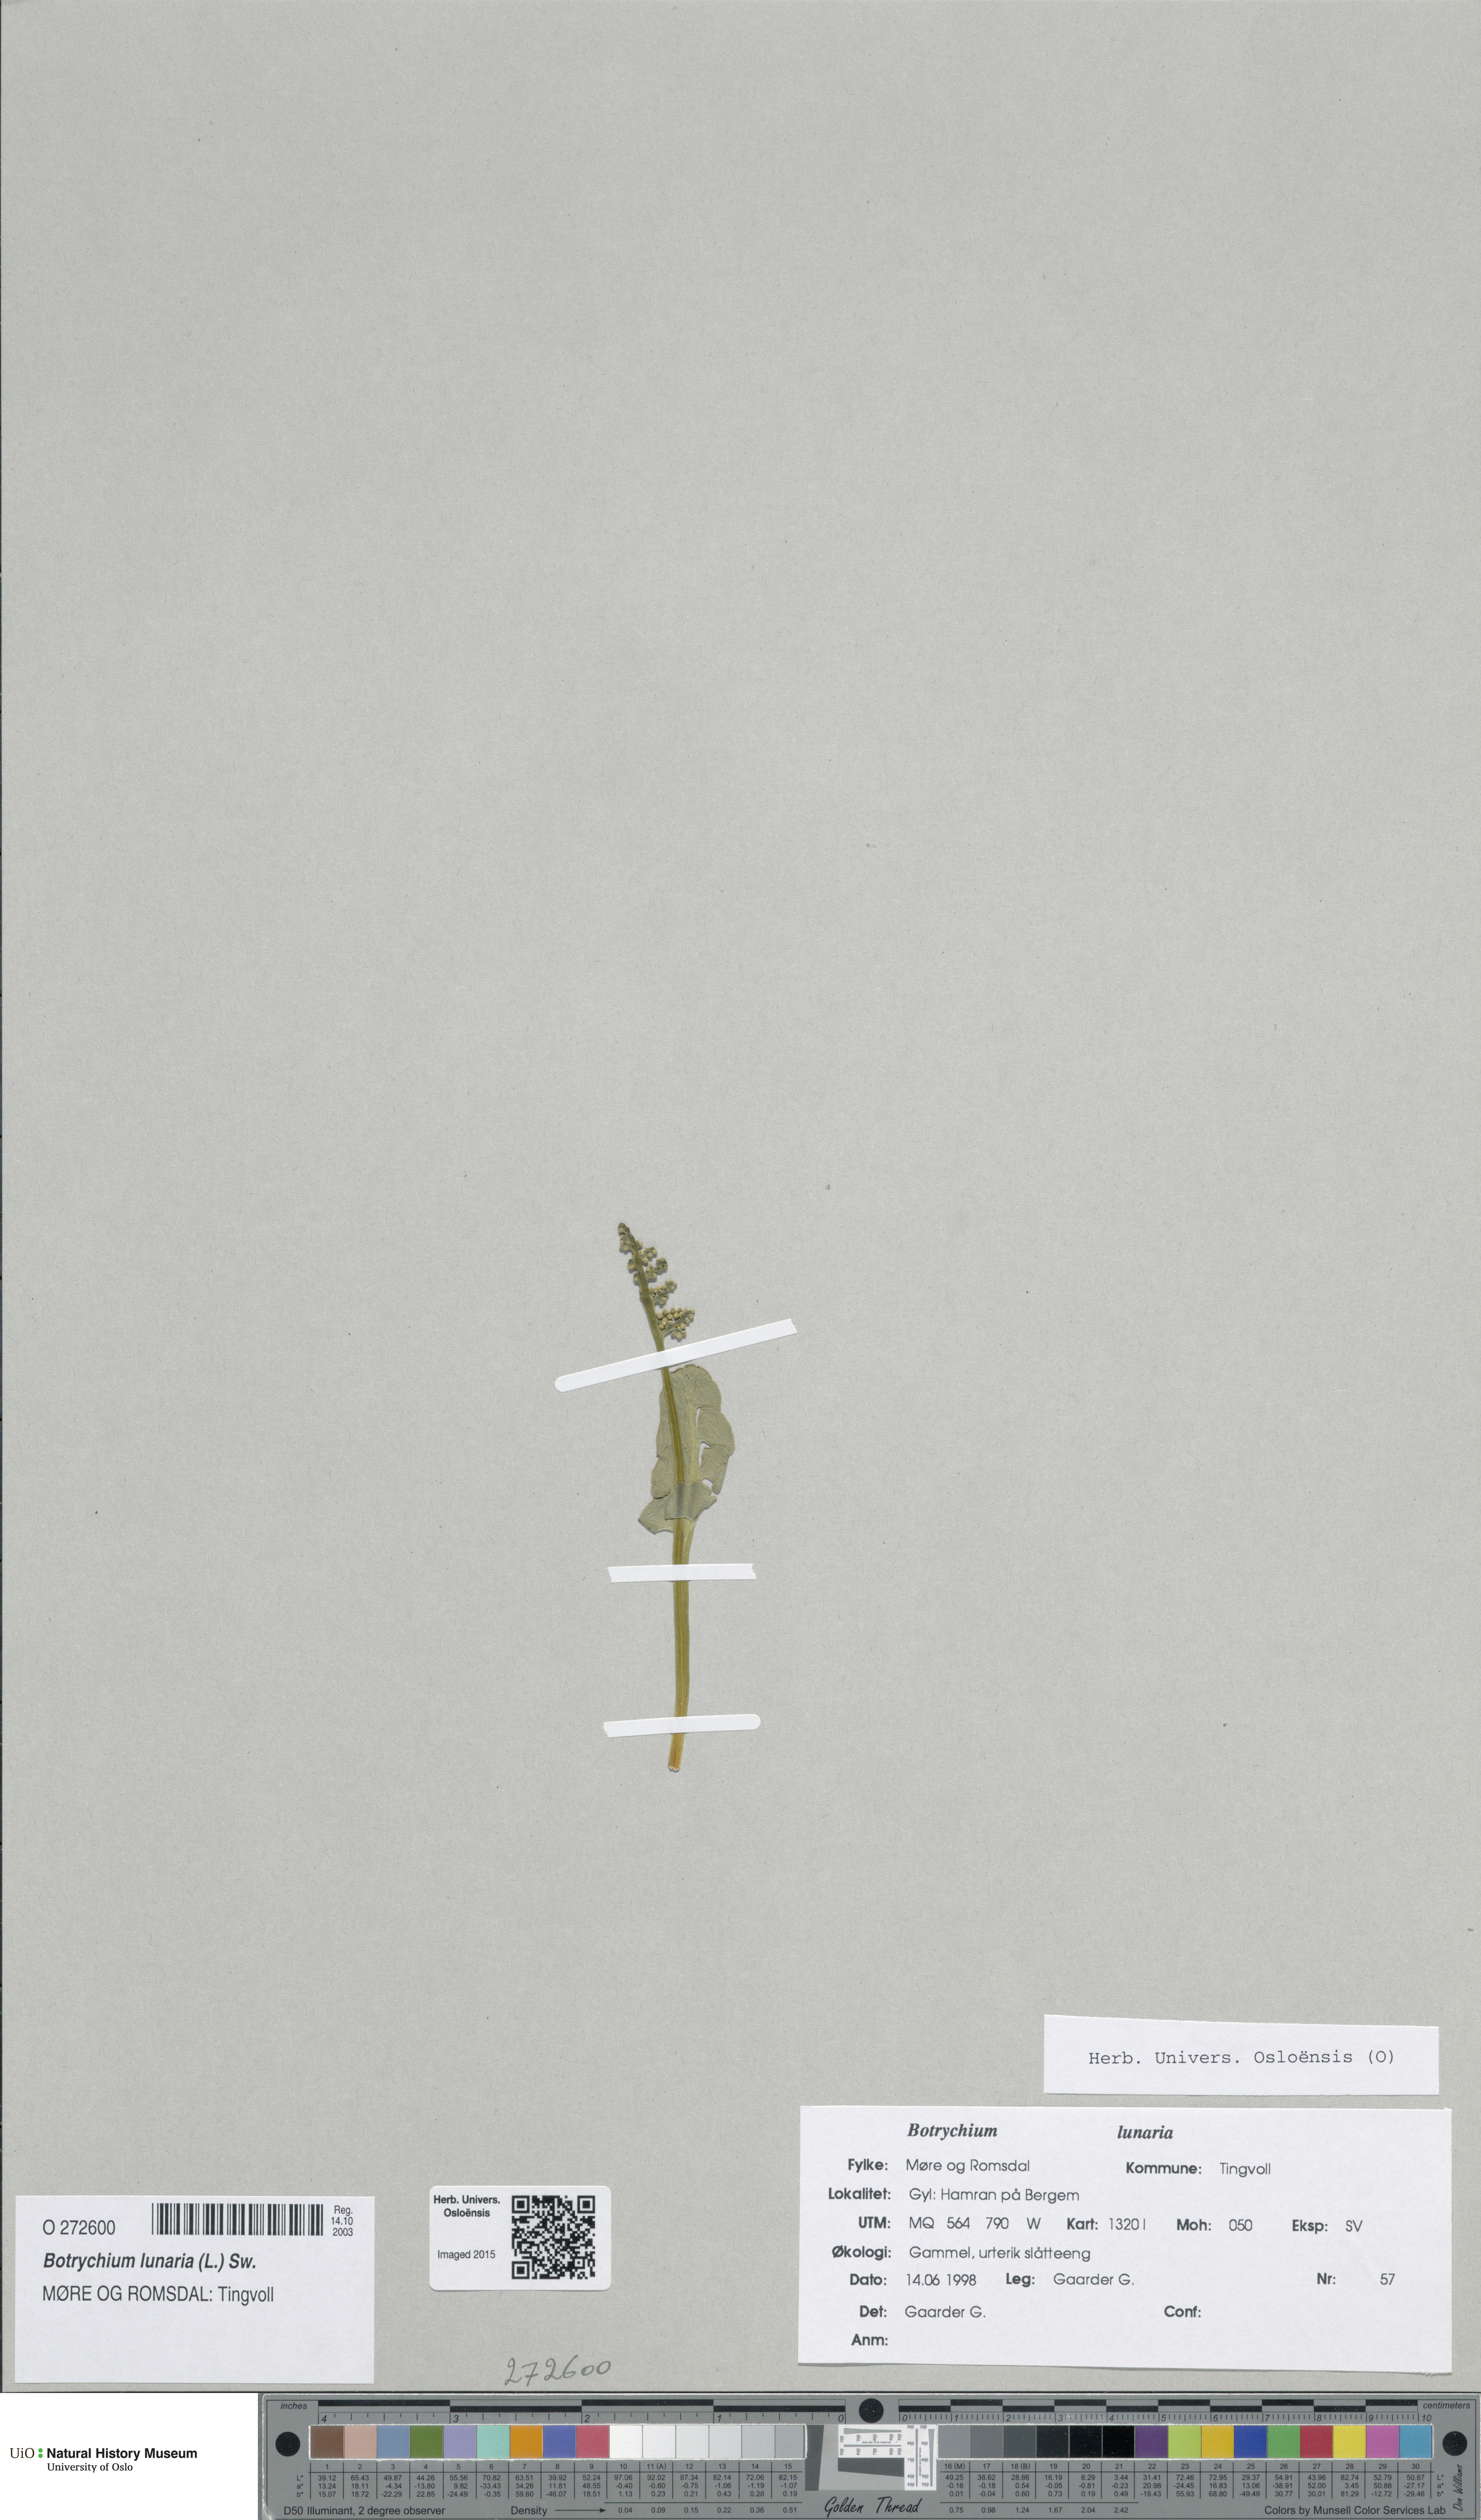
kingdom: Plantae
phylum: Tracheophyta
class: Polypodiopsida
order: Ophioglossales
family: Ophioglossaceae
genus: Botrychium
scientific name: Botrychium lunaria
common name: Moonwort
